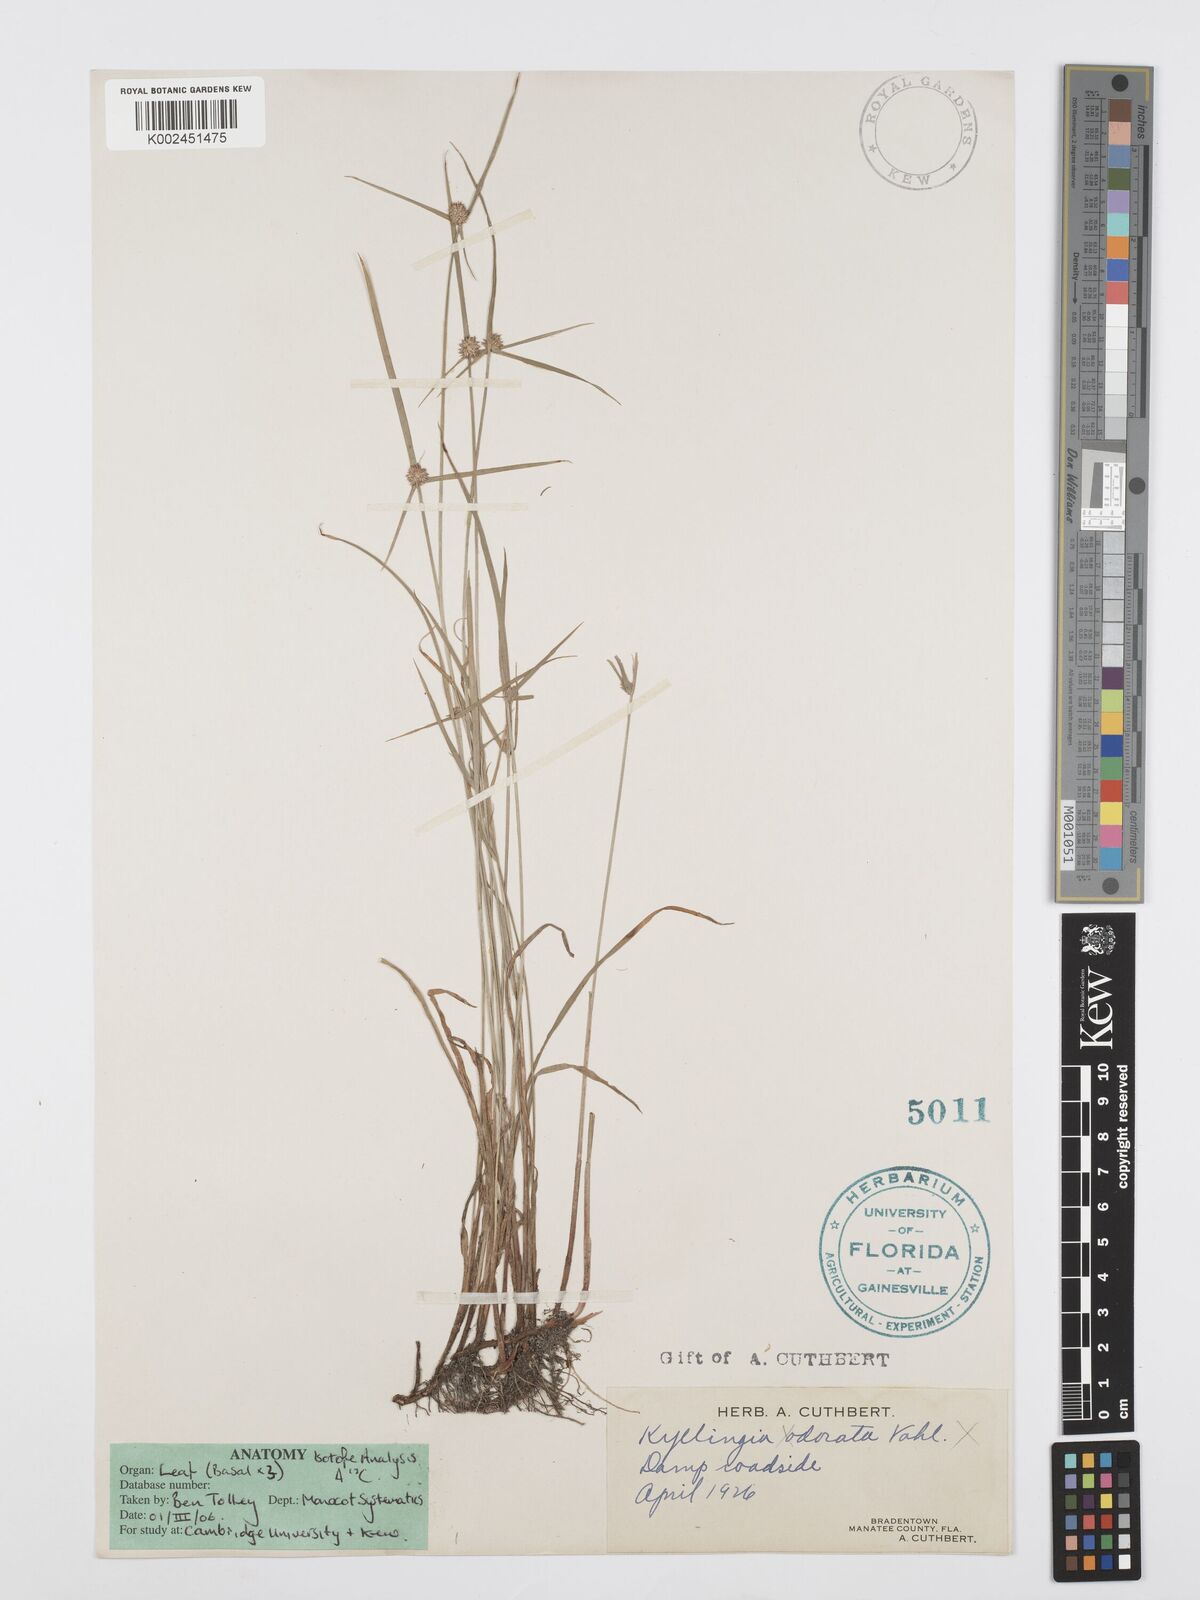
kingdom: Plantae
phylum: Tracheophyta
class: Liliopsida
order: Poales
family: Cyperaceae
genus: Cyperus
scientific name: Cyperus brevifolius
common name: Globe kyllinga
